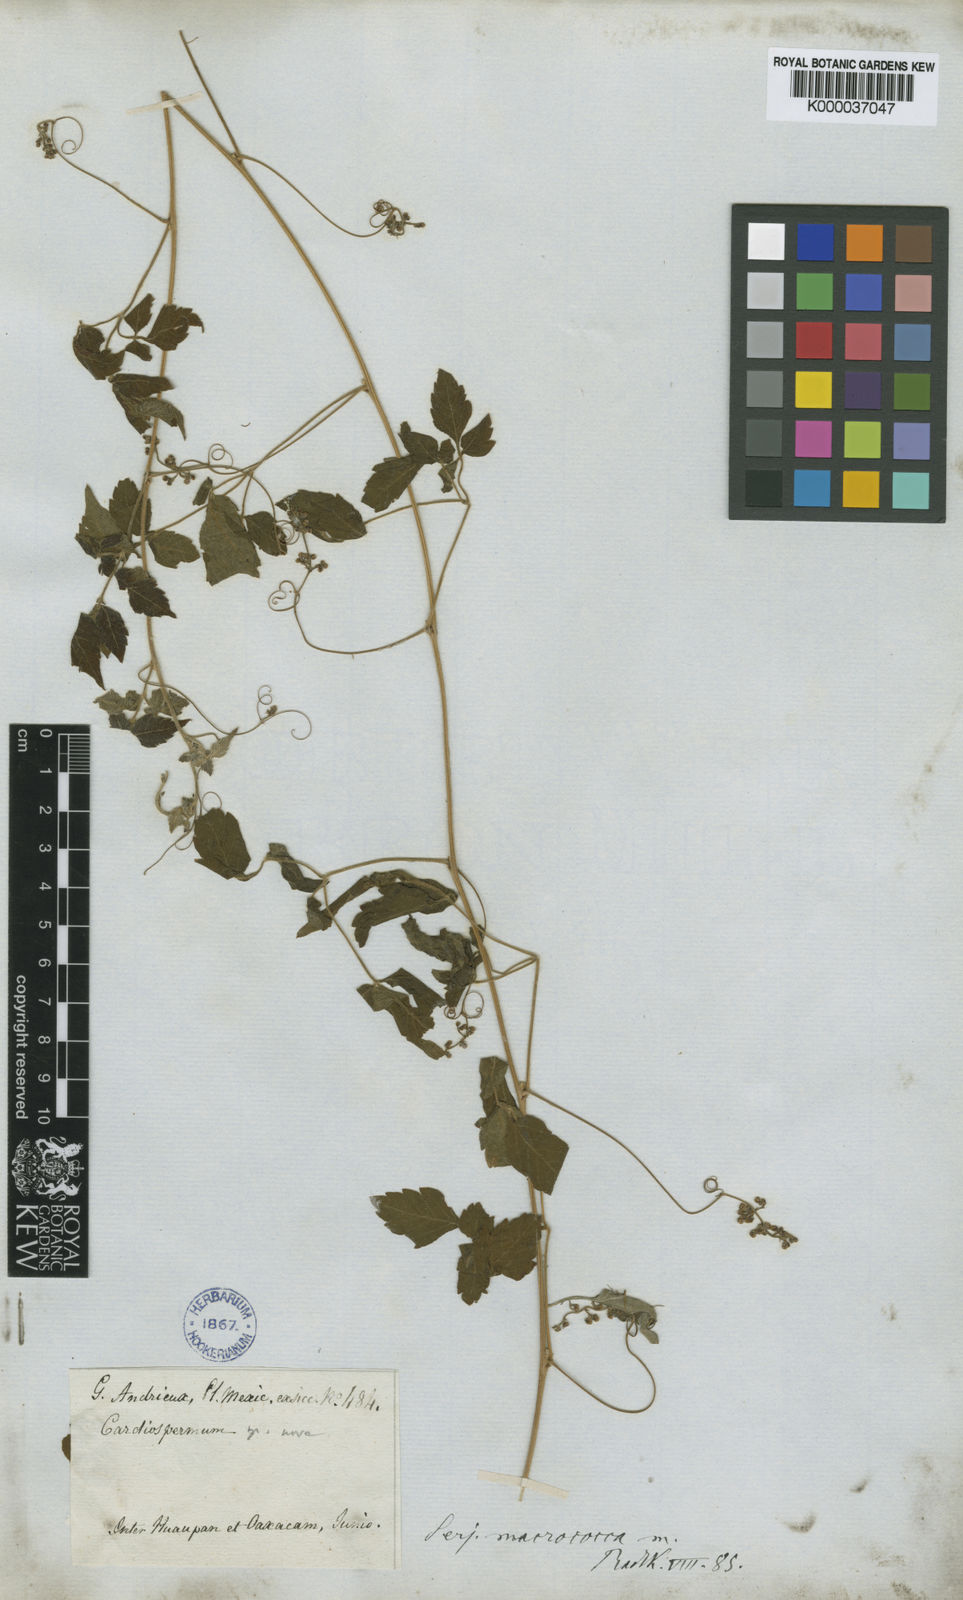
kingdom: Plantae
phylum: Tracheophyta
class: Magnoliopsida
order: Sapindales
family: Sapindaceae
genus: Serjania
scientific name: Serjania macrococca
